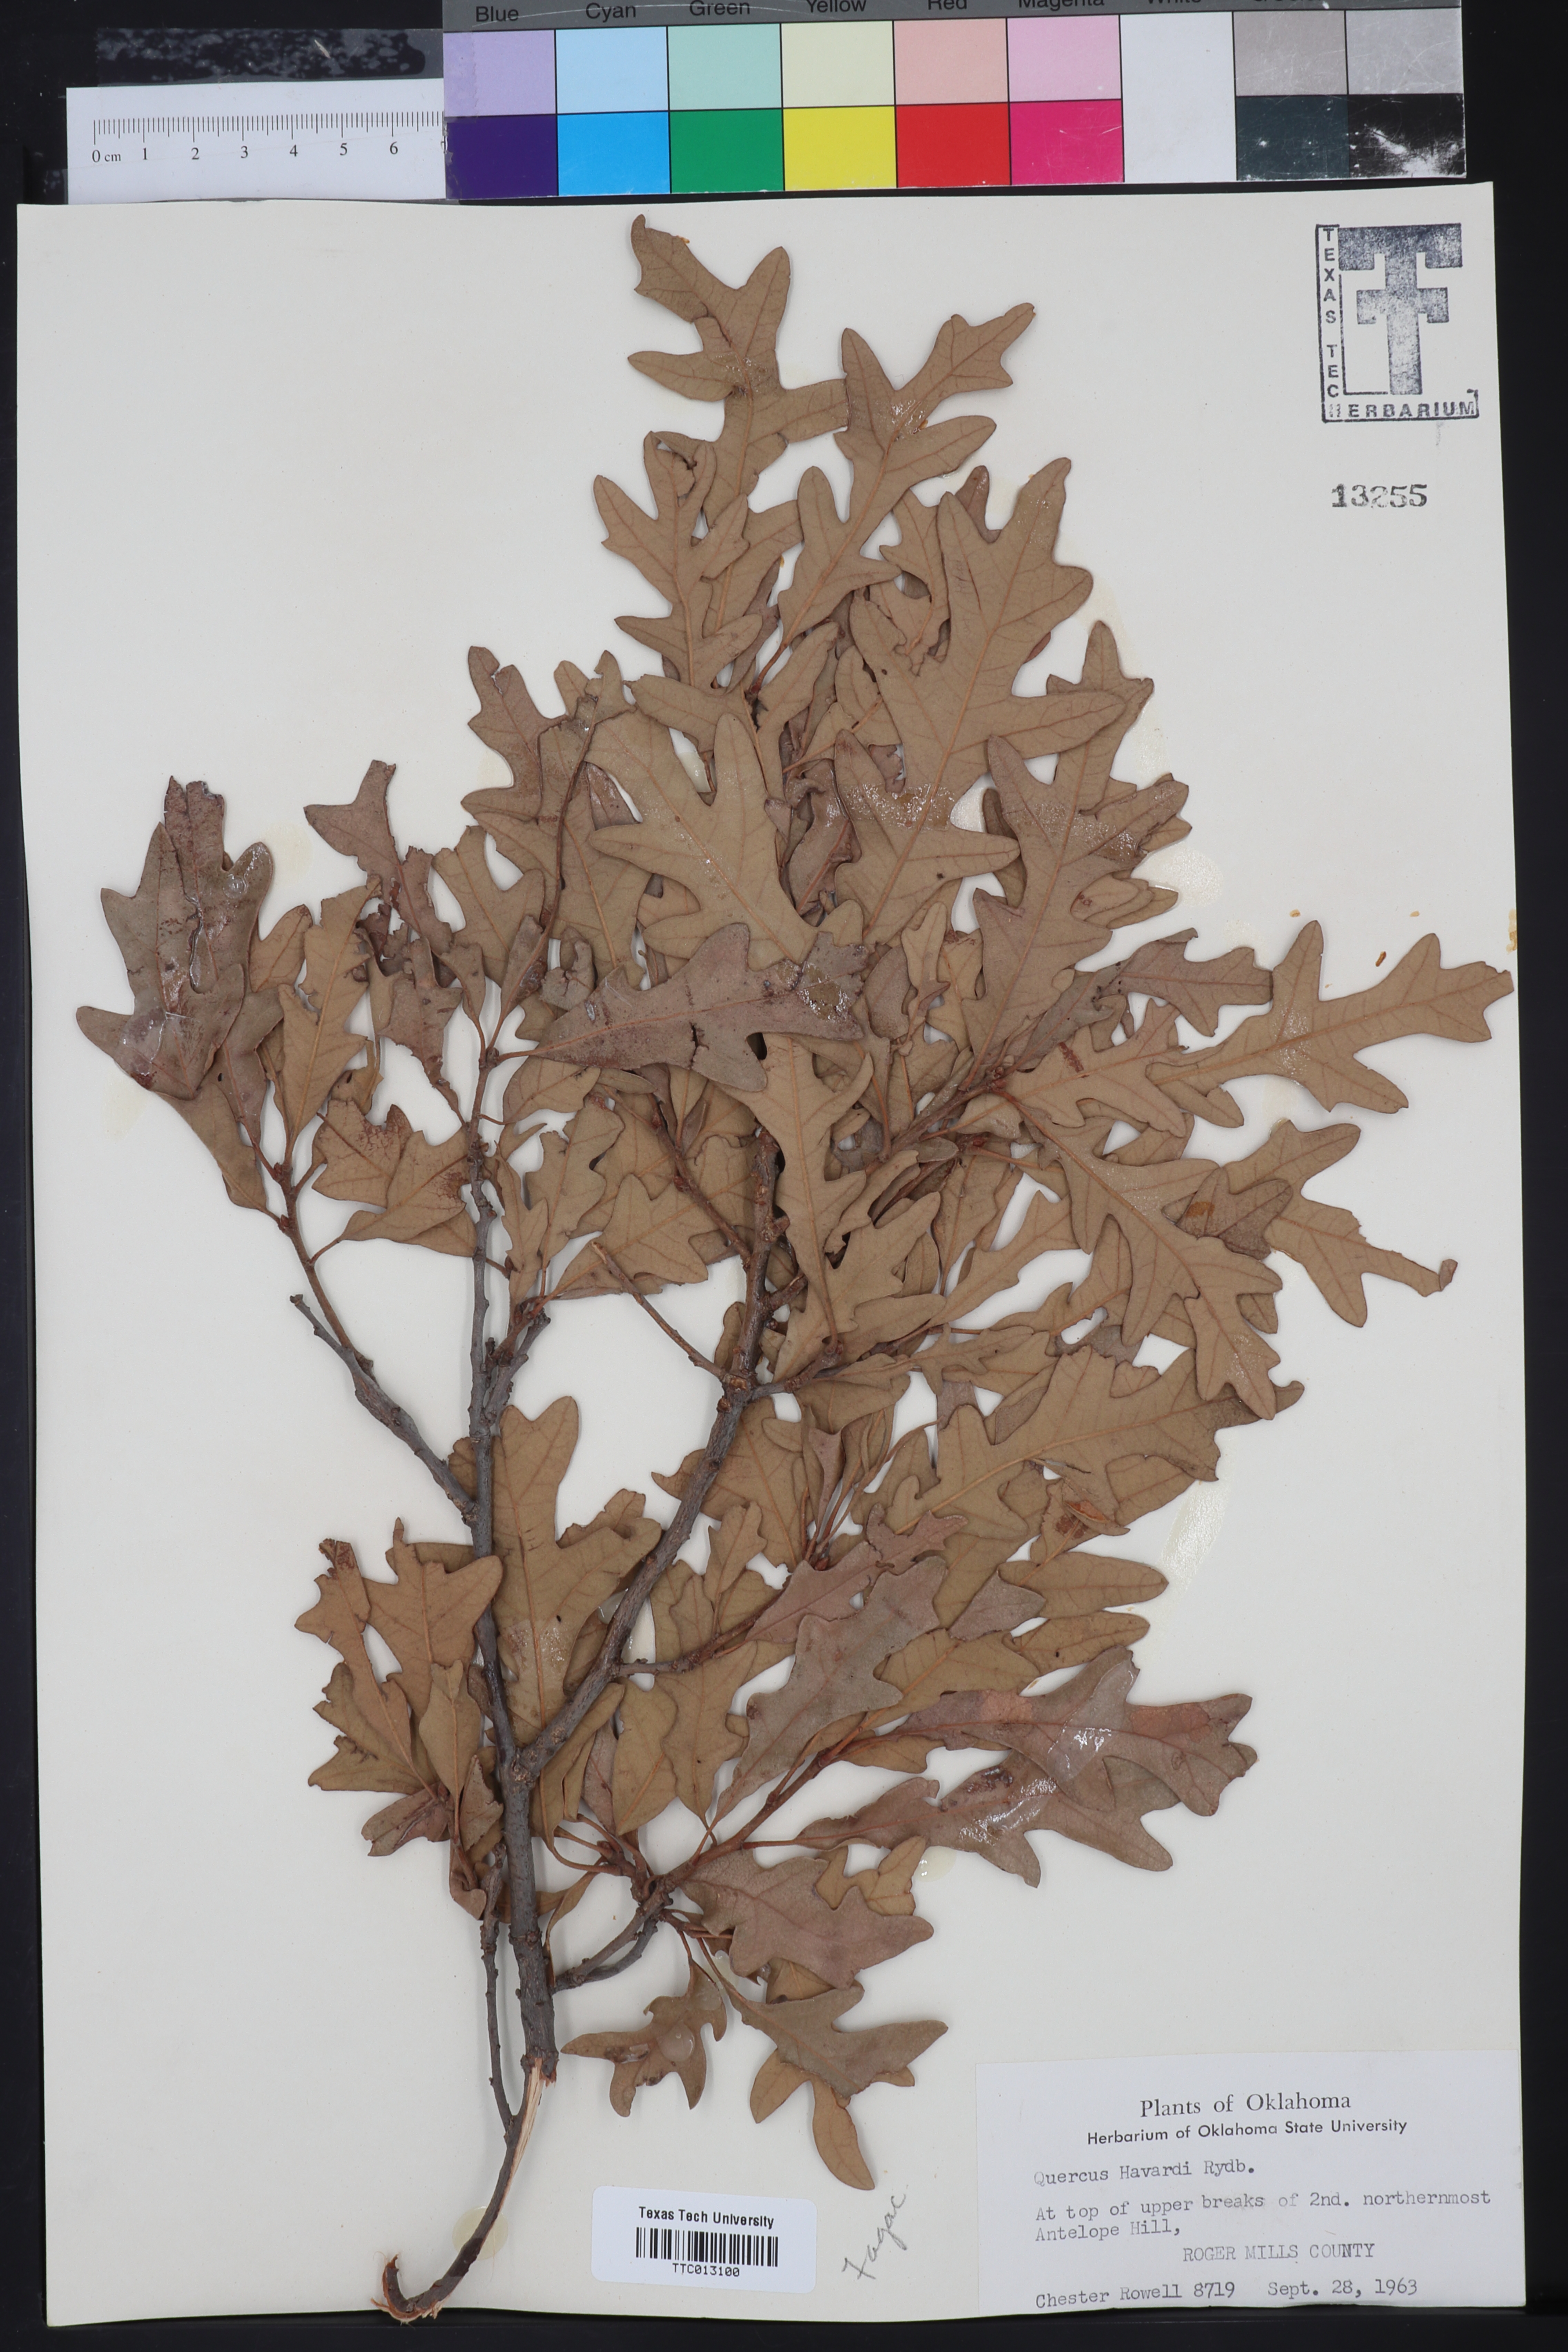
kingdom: Plantae
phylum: Tracheophyta
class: Magnoliopsida
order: Fagales
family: Fagaceae
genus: Quercus
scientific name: Quercus havardii
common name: Shinnery oak
